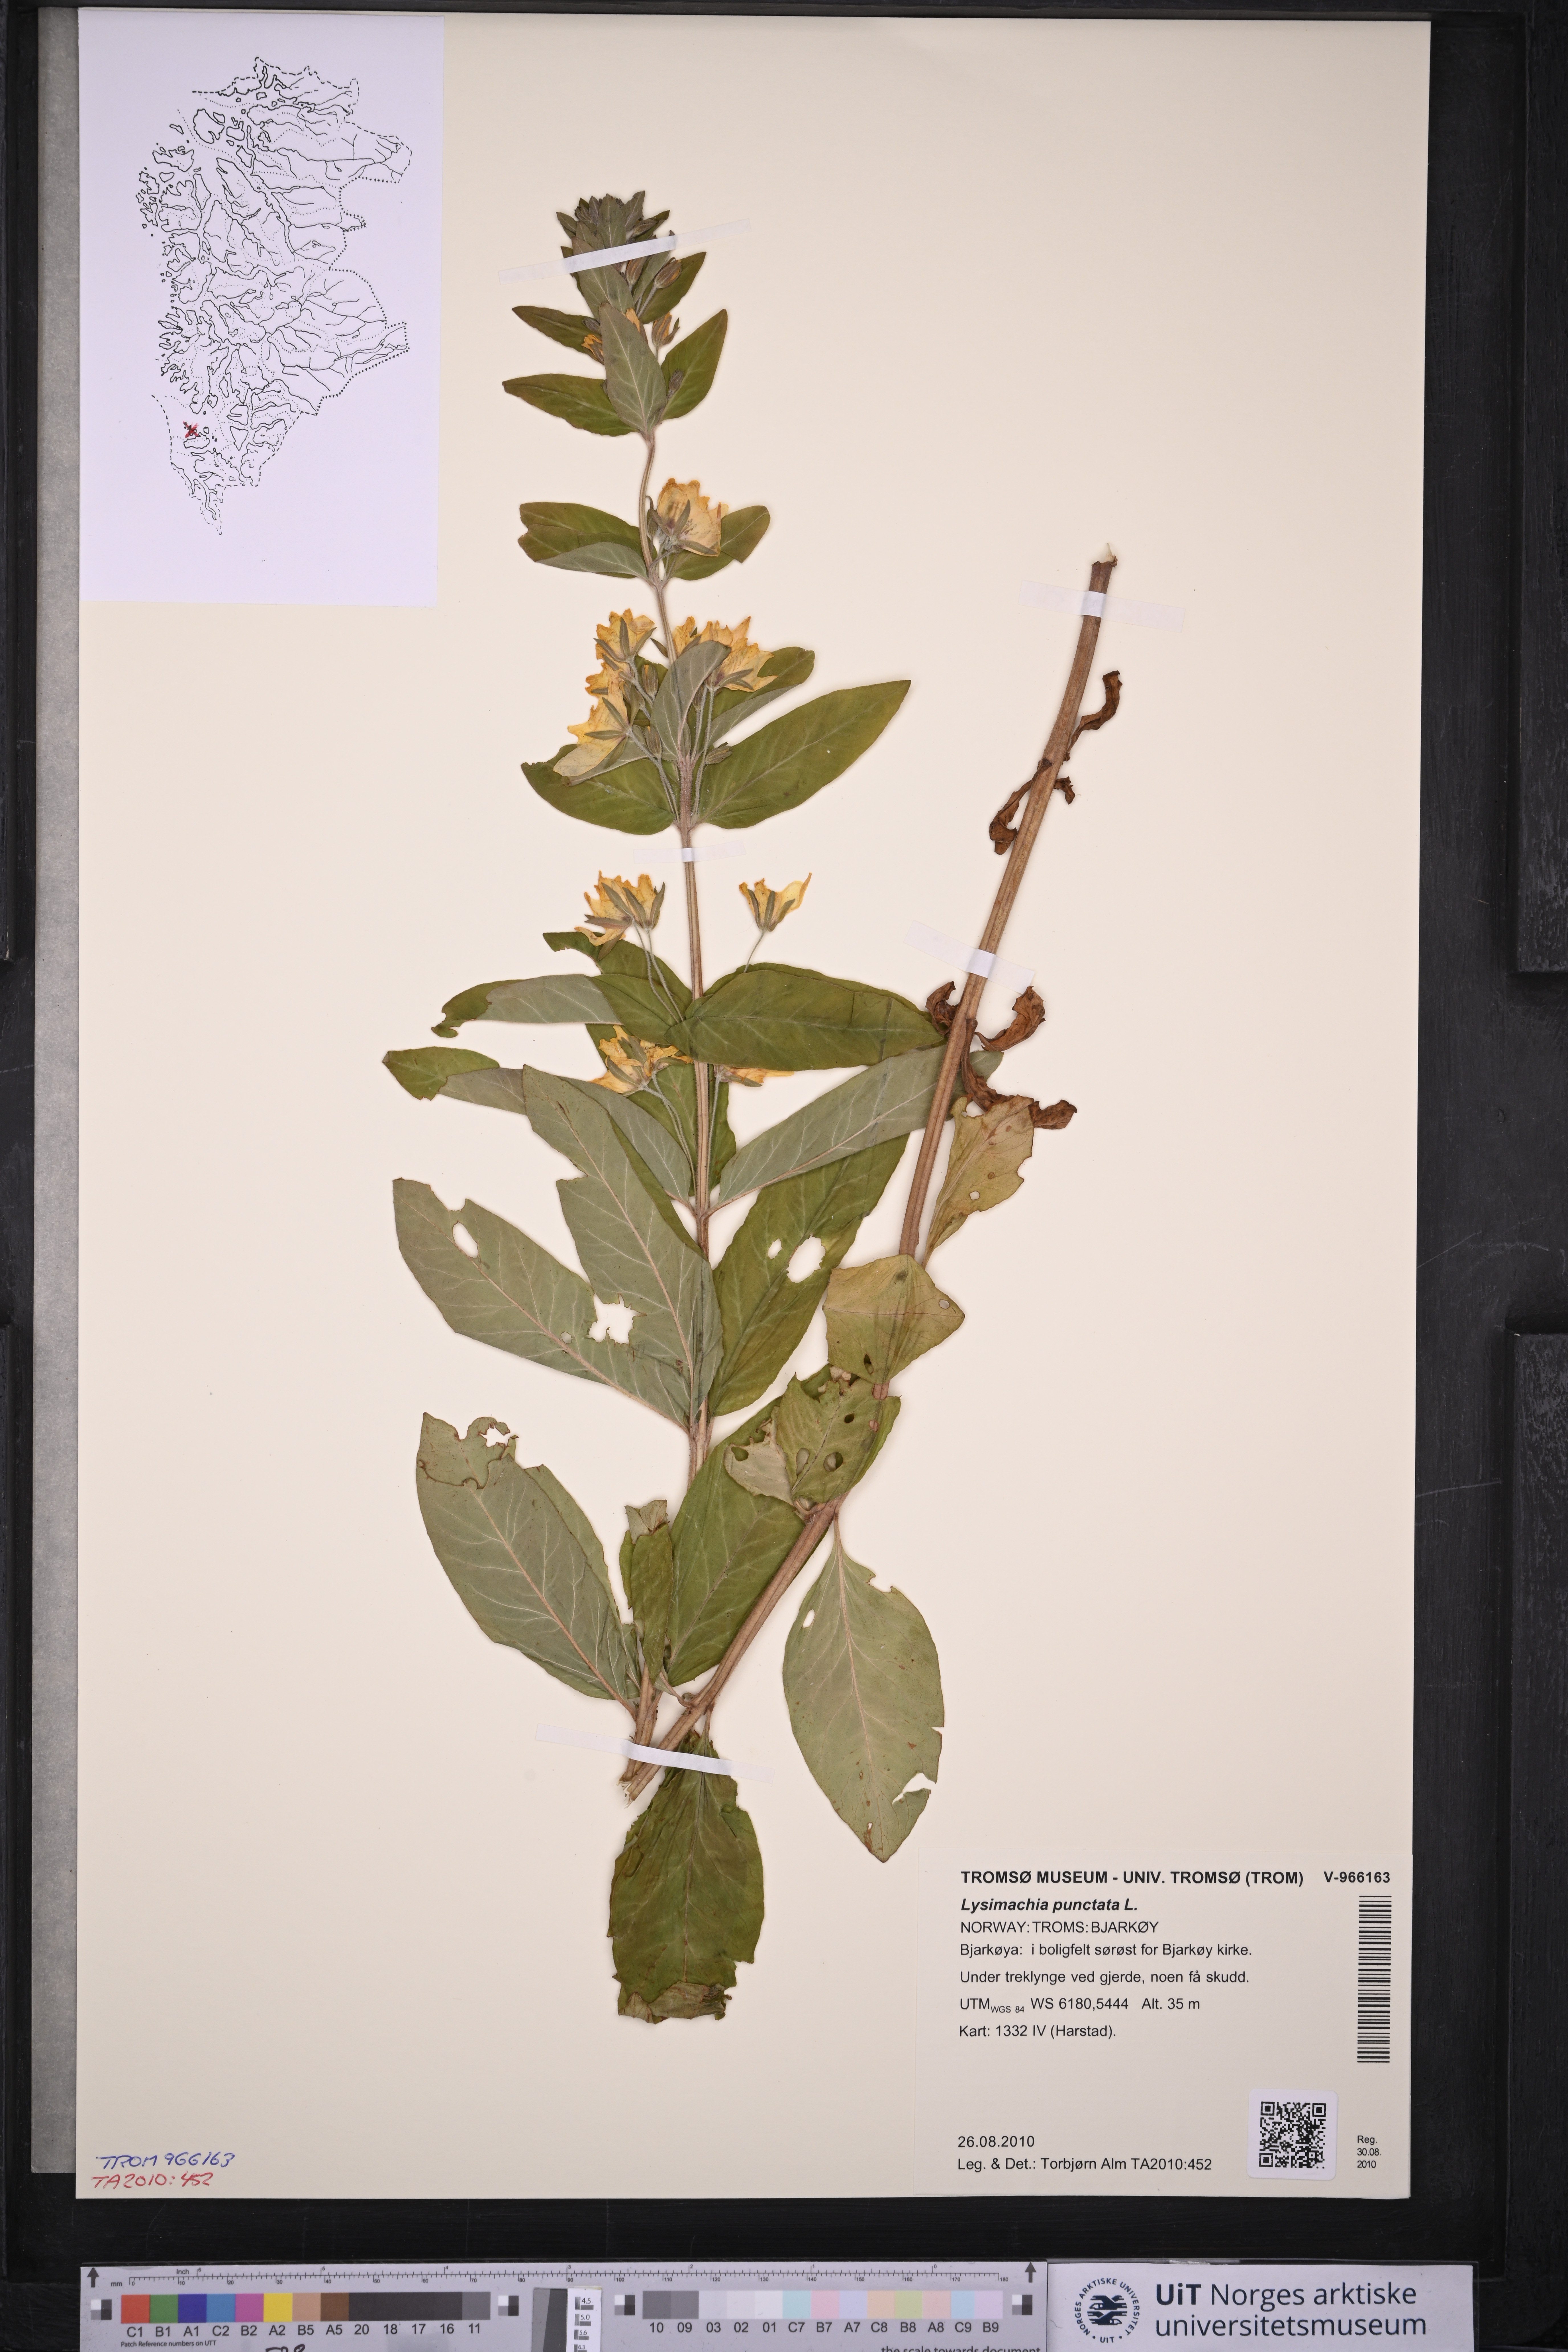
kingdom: Plantae
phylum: Tracheophyta
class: Magnoliopsida
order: Ericales
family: Primulaceae
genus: Lysimachia
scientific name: Lysimachia punctata
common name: Dotted loosestrife
